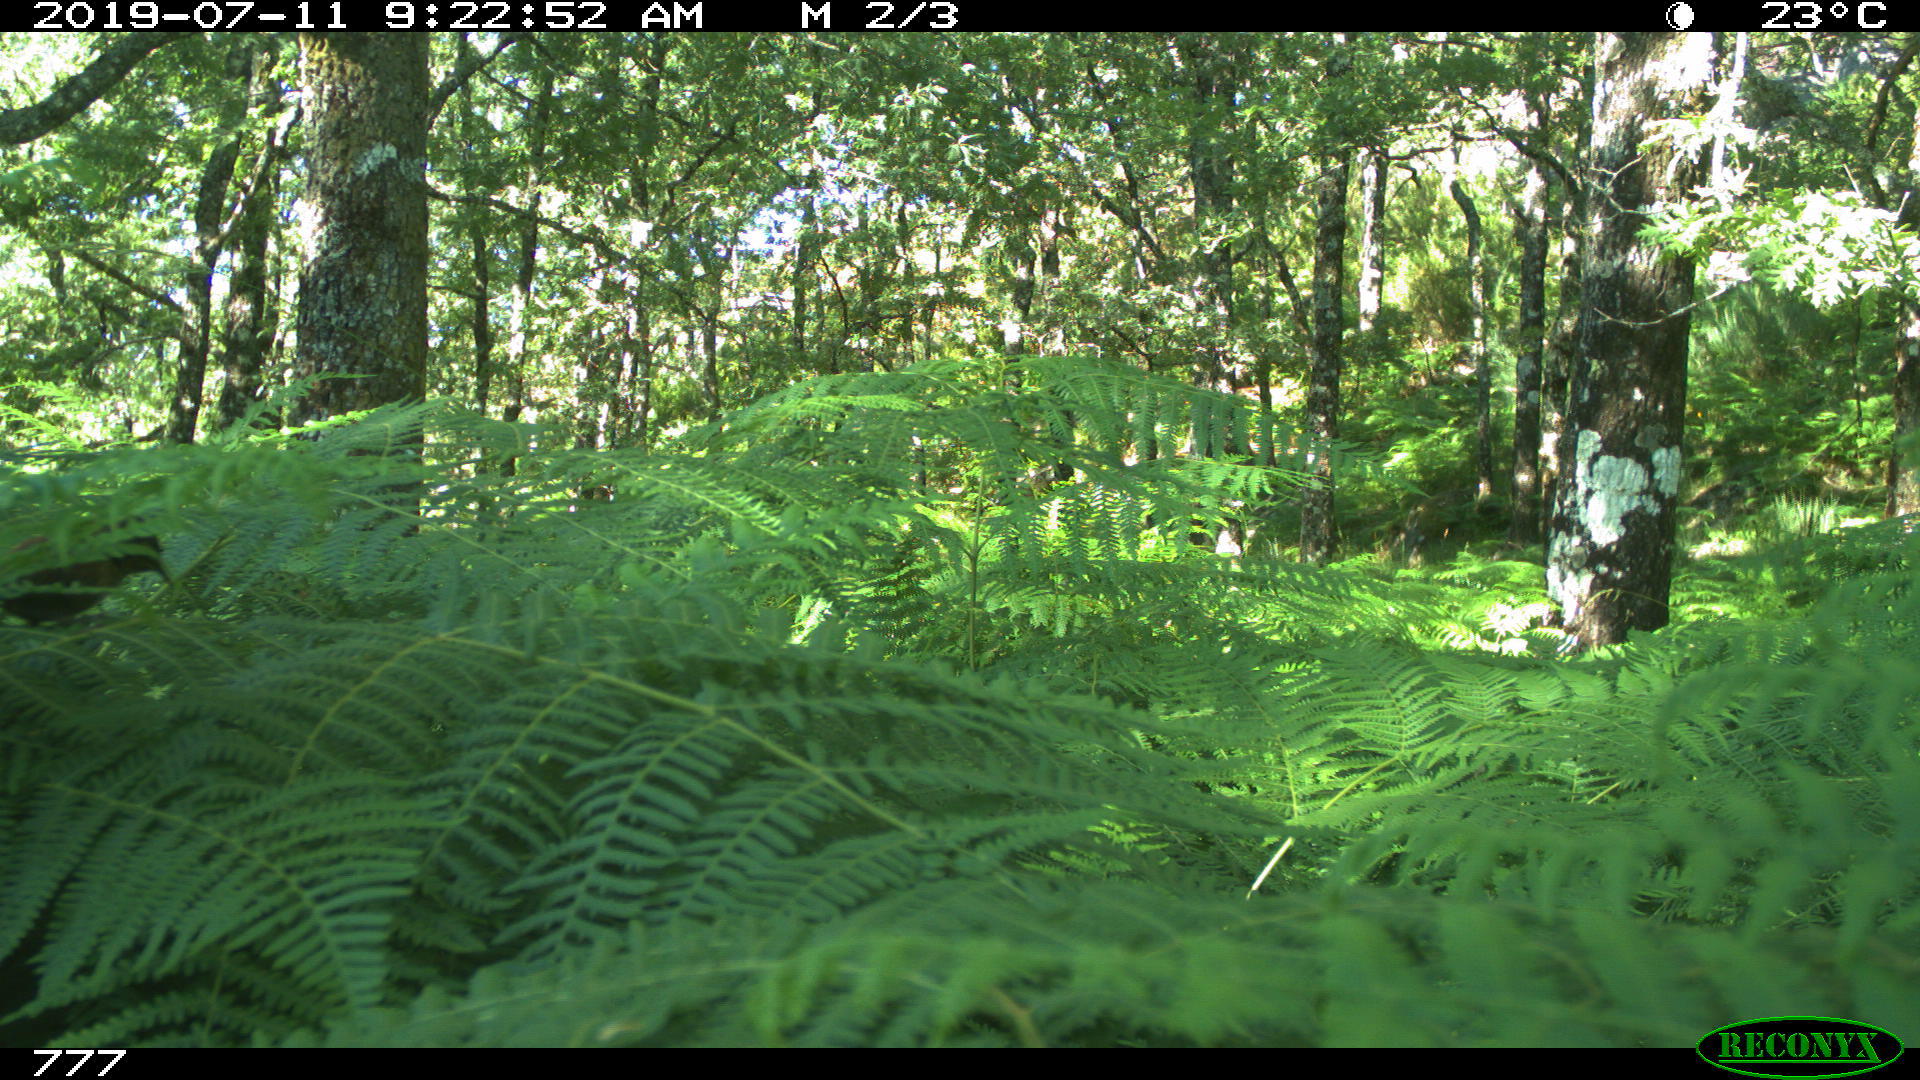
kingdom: Animalia
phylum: Chordata
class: Mammalia
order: Rodentia
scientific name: Rodentia
